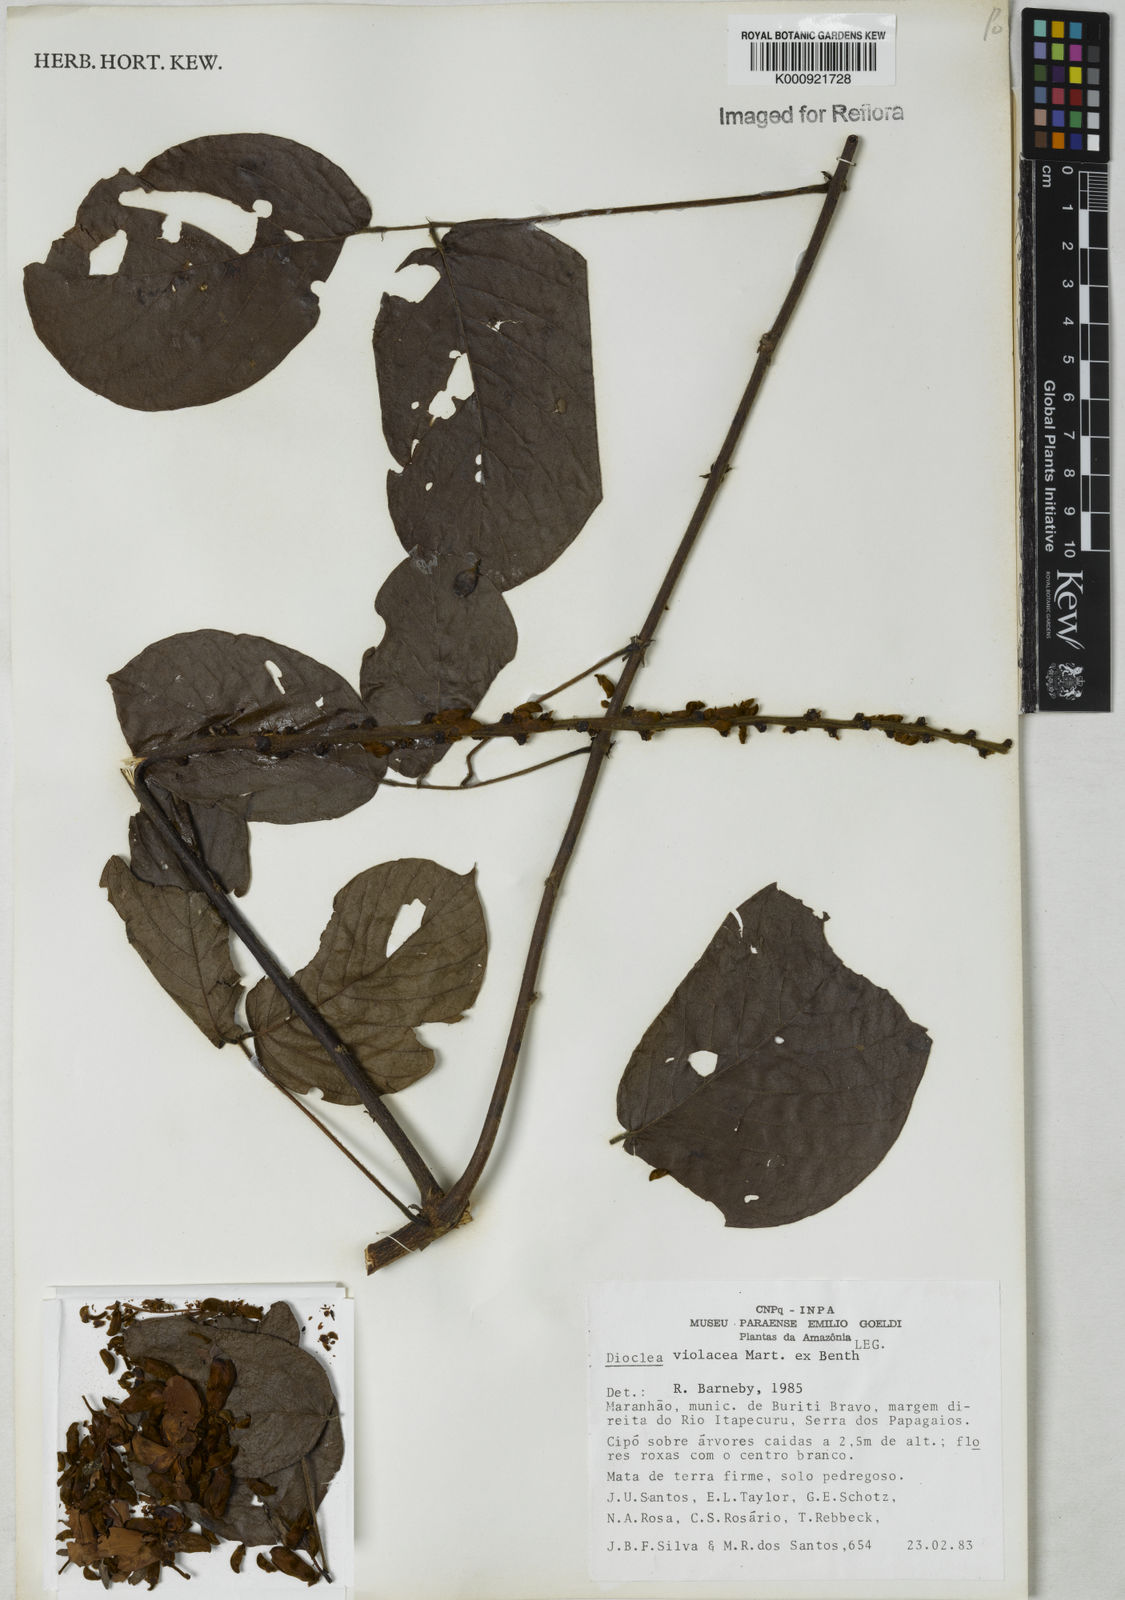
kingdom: Plantae
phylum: Tracheophyta
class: Magnoliopsida
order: Fabales
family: Fabaceae
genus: Macropsychanthus
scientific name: Macropsychanthus violaceus
